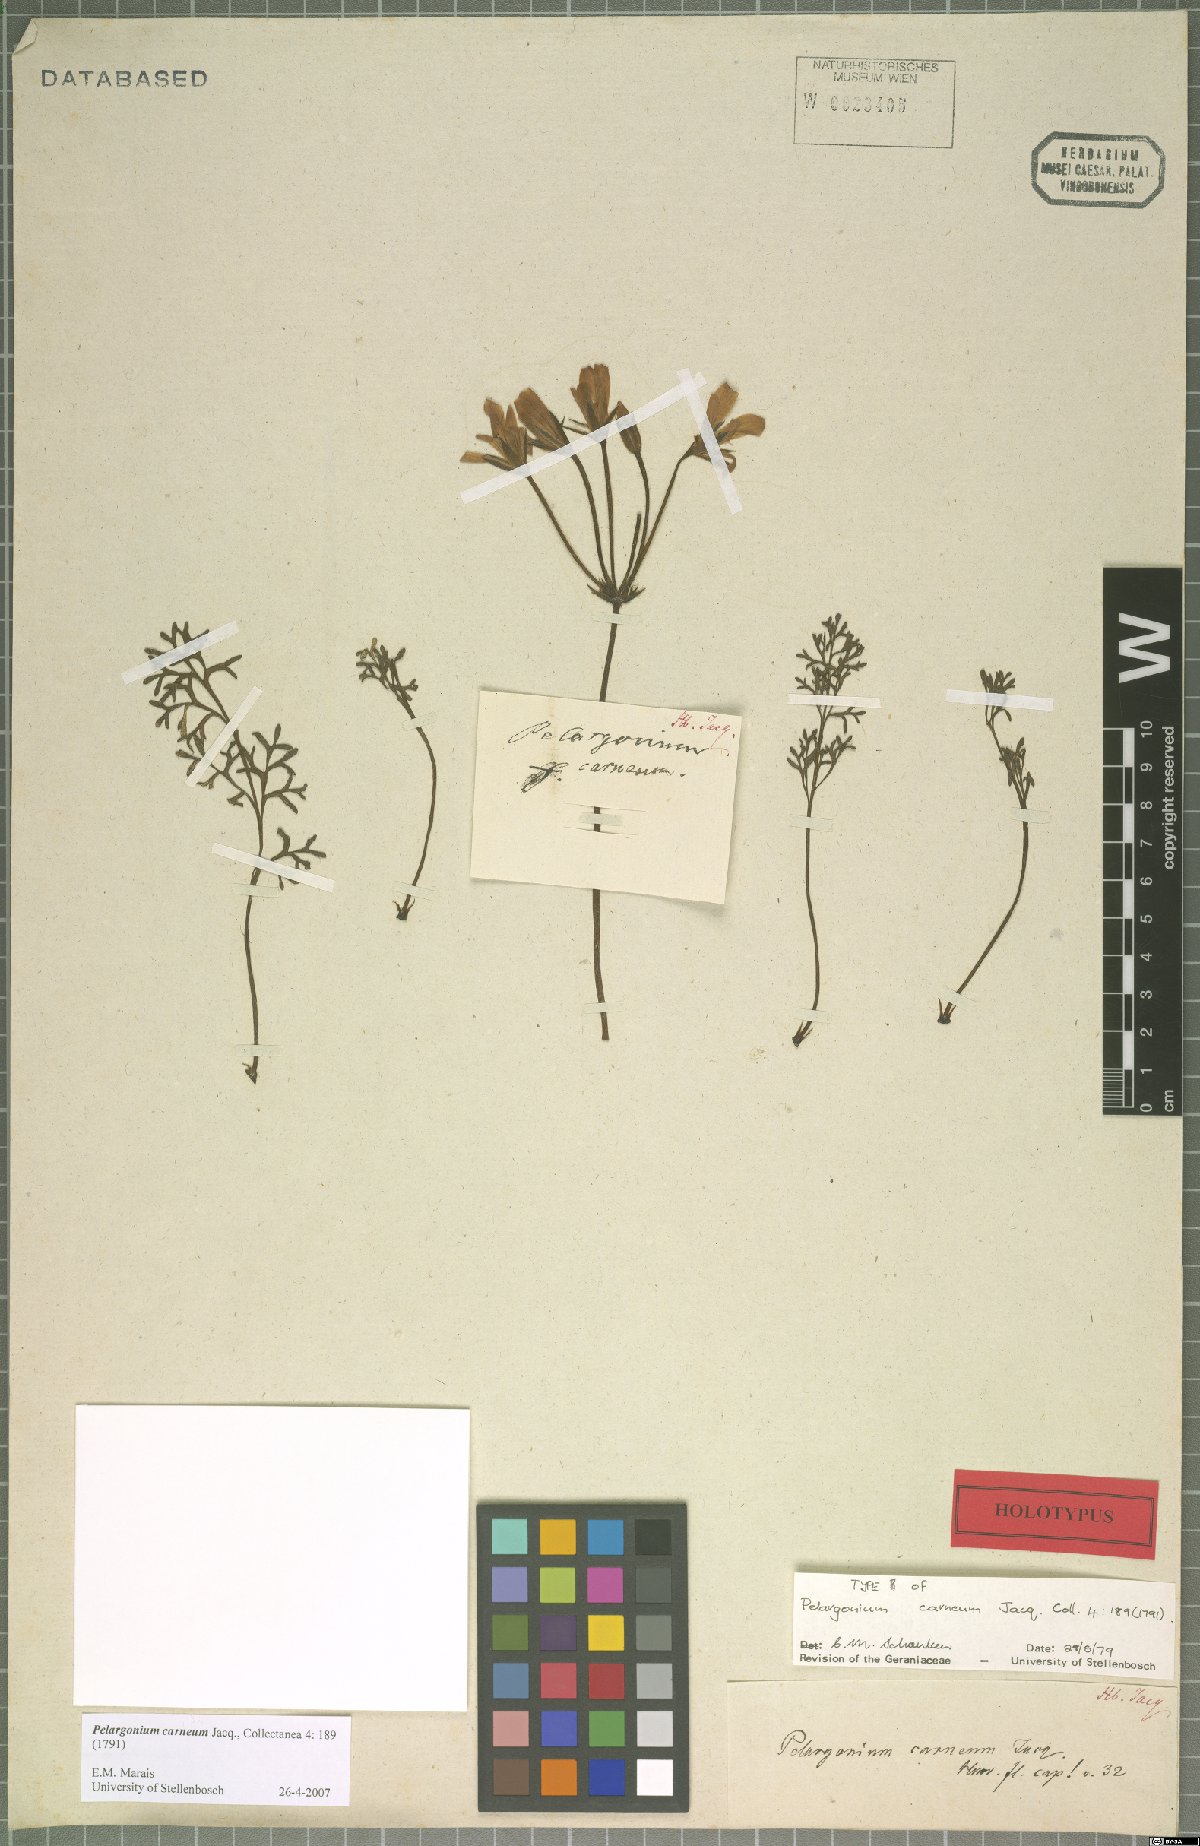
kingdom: Plantae
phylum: Tracheophyta
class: Magnoliopsida
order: Geraniales
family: Geraniaceae
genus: Pelargonium
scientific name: Pelargonium carneum
